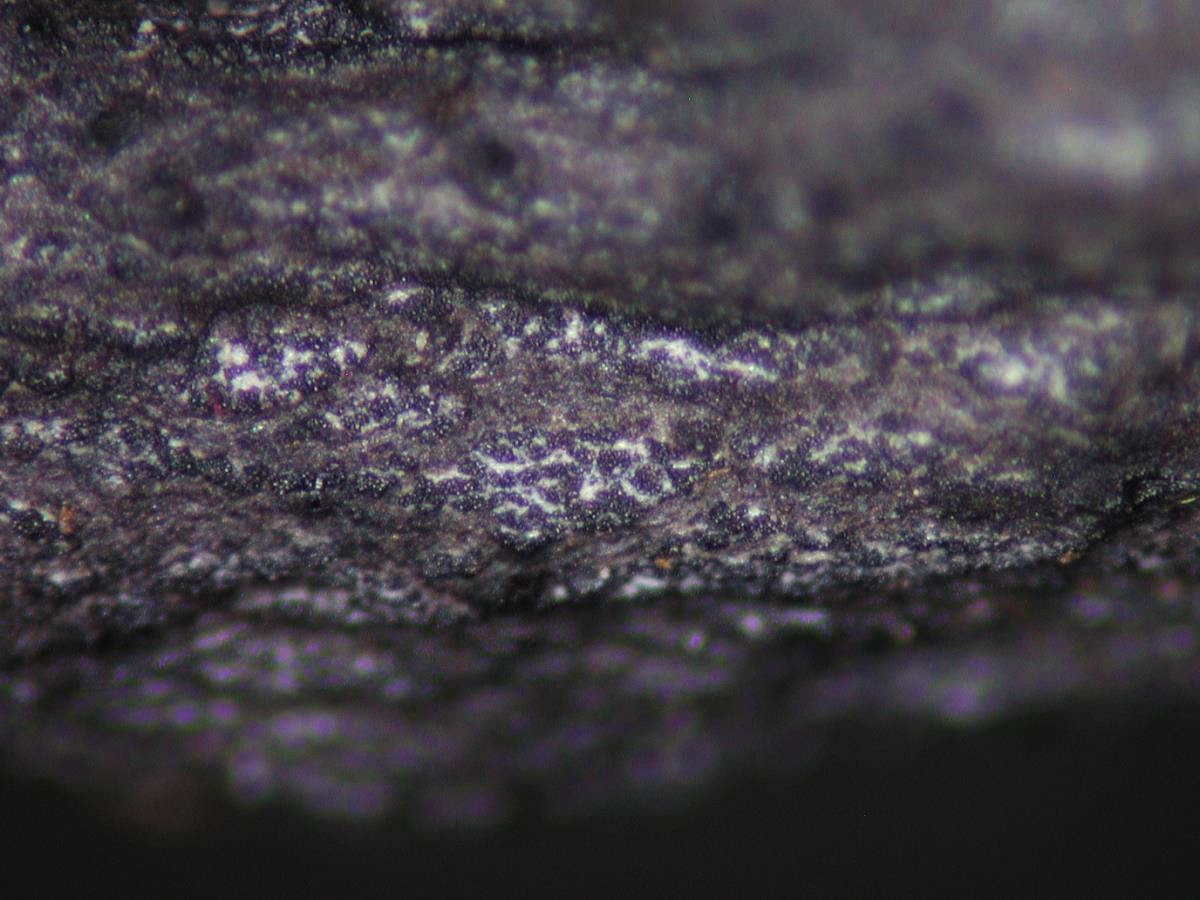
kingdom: Fungi
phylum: Ascomycota
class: Sordariomycetes
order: Xylariales
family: Xylariaceae
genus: Xylaria
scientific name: Xylaria arbuscula
